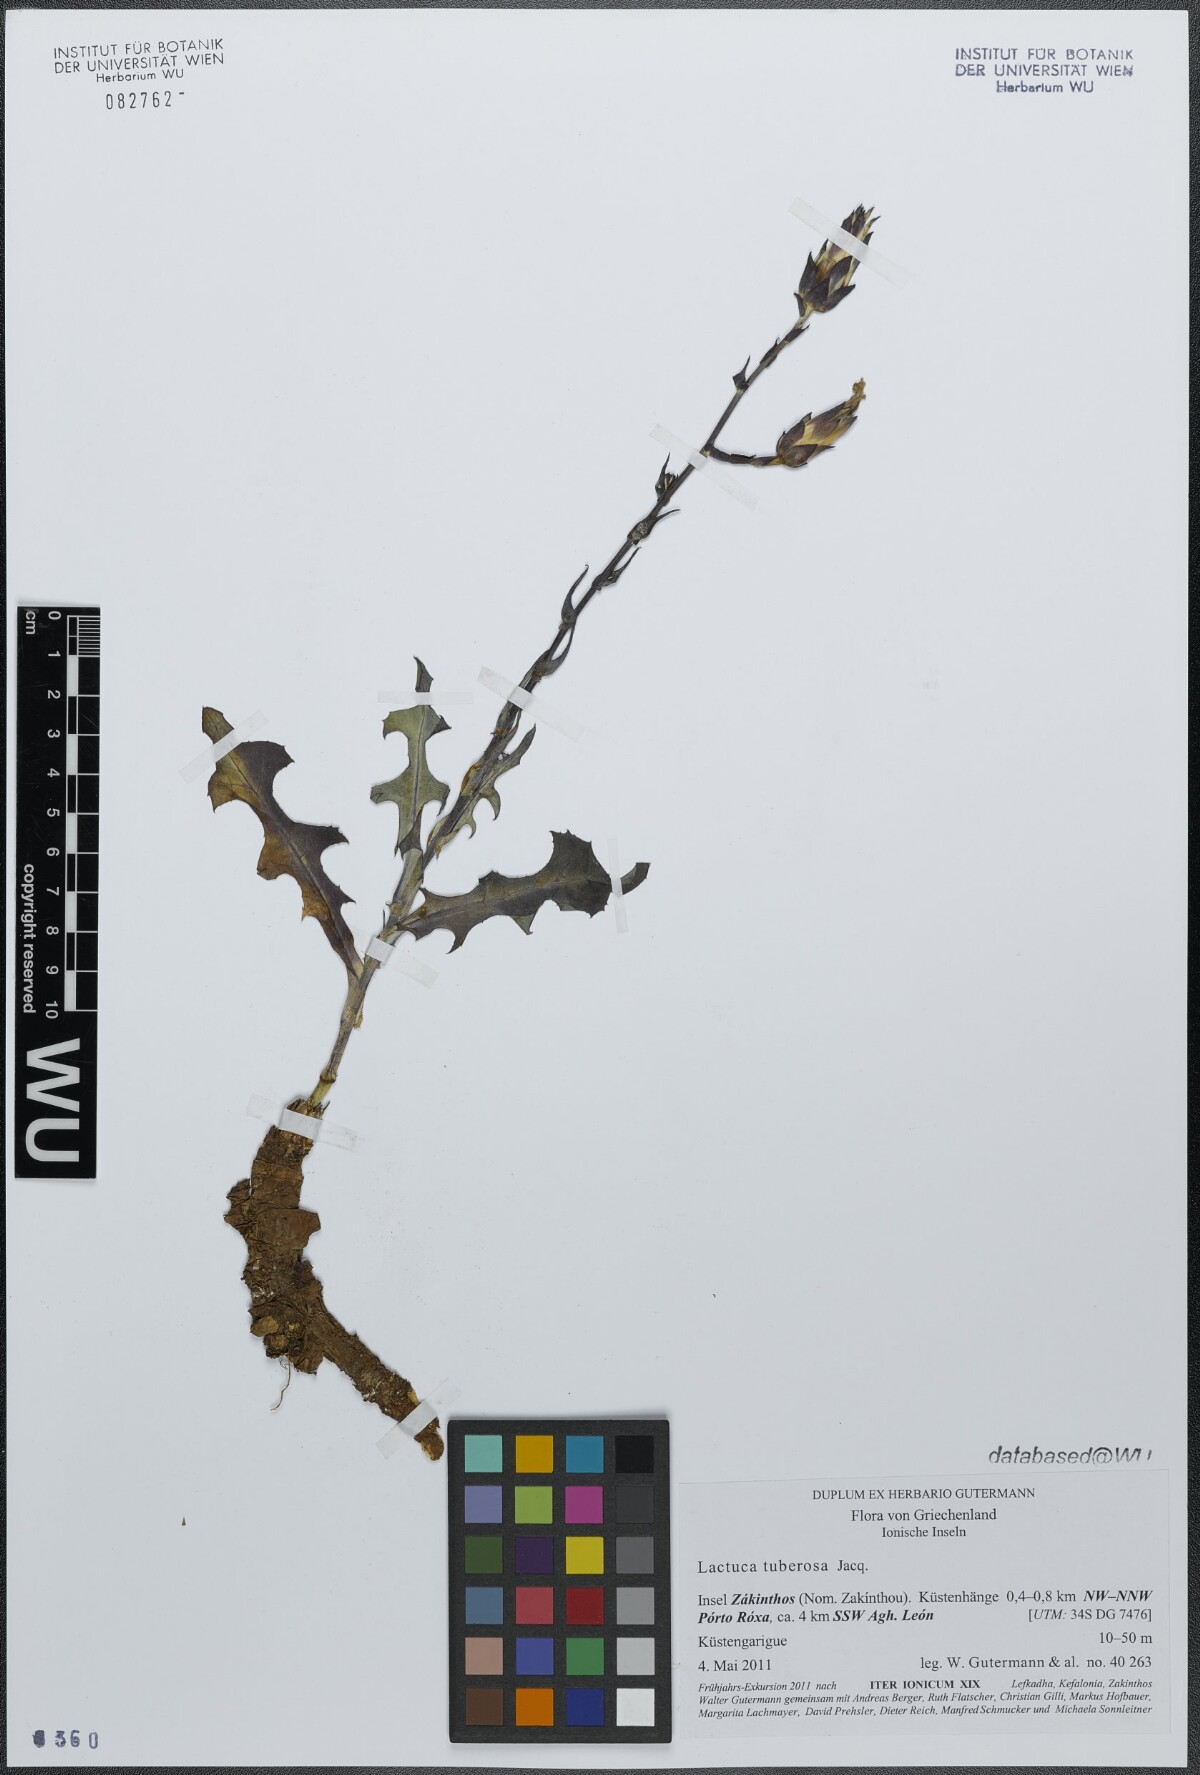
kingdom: Plantae
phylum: Tracheophyta
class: Magnoliopsida
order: Asterales
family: Asteraceae
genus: Lactuca
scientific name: Lactuca tuberosa
